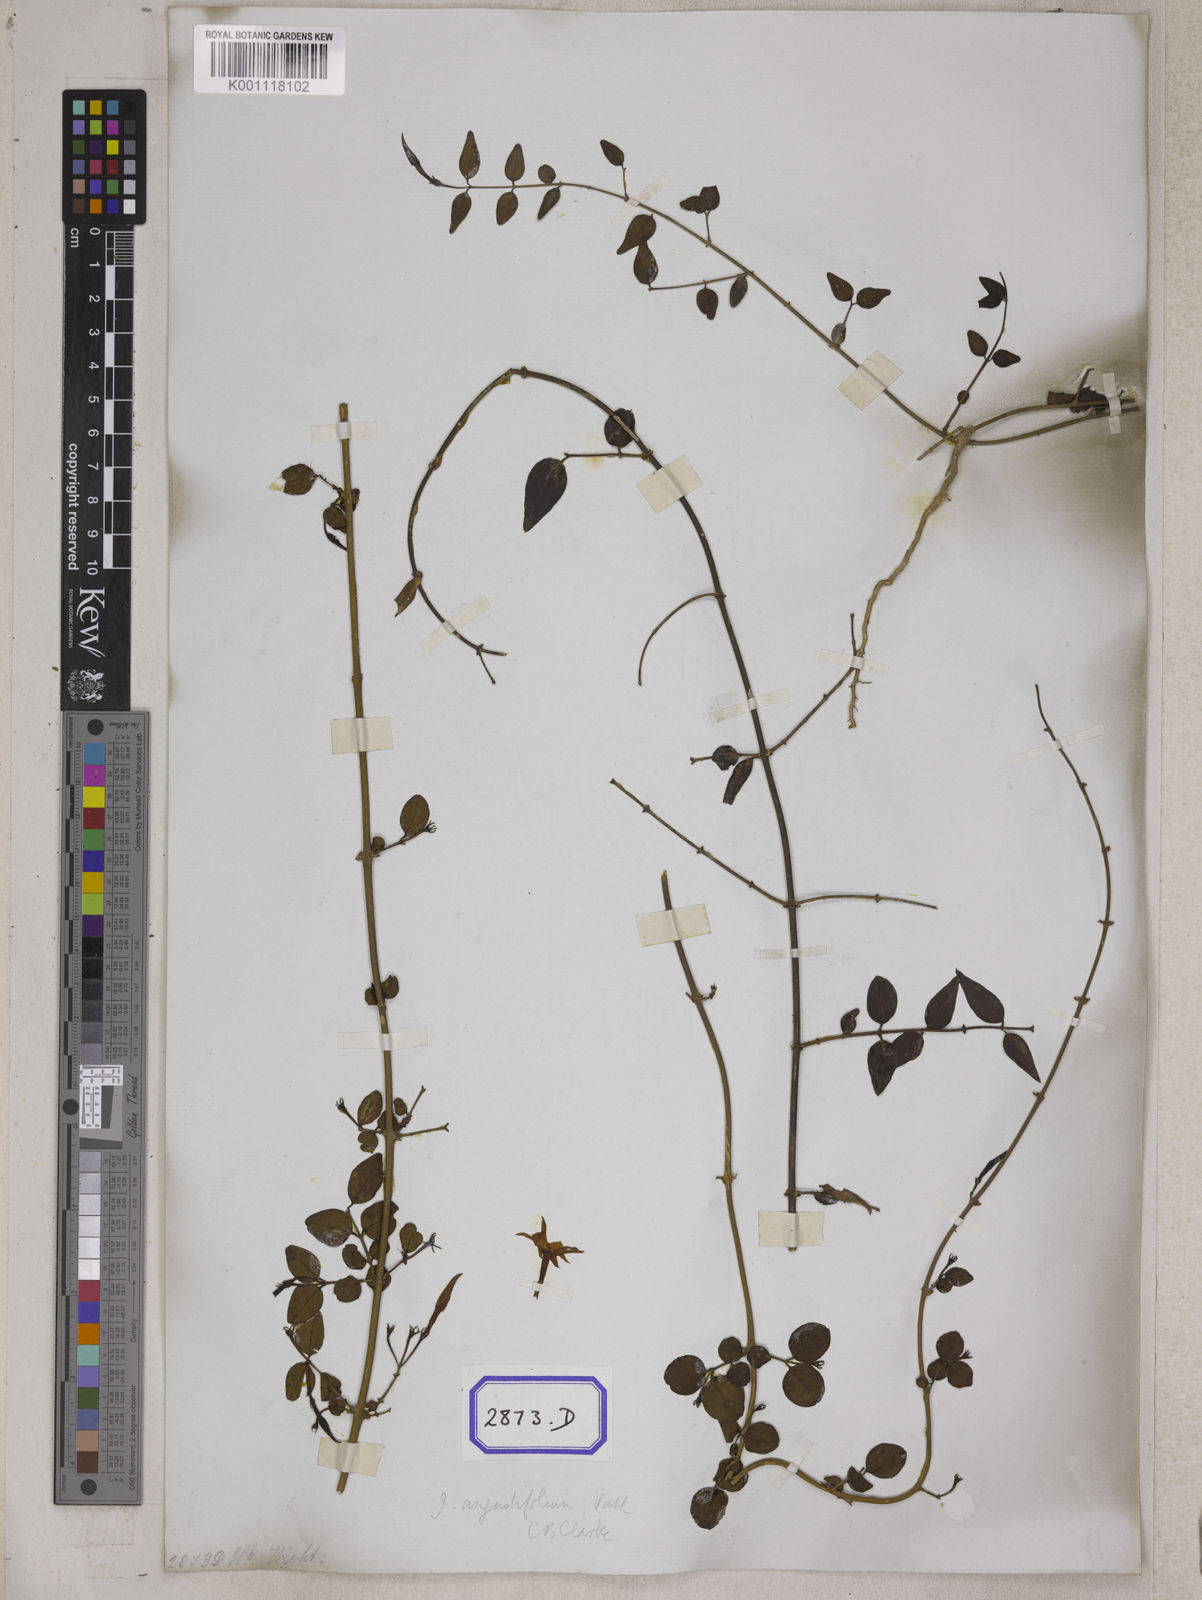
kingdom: Plantae
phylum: Tracheophyta
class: Magnoliopsida
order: Lamiales
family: Oleaceae
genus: Jasminum
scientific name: Jasminum angustifolium
